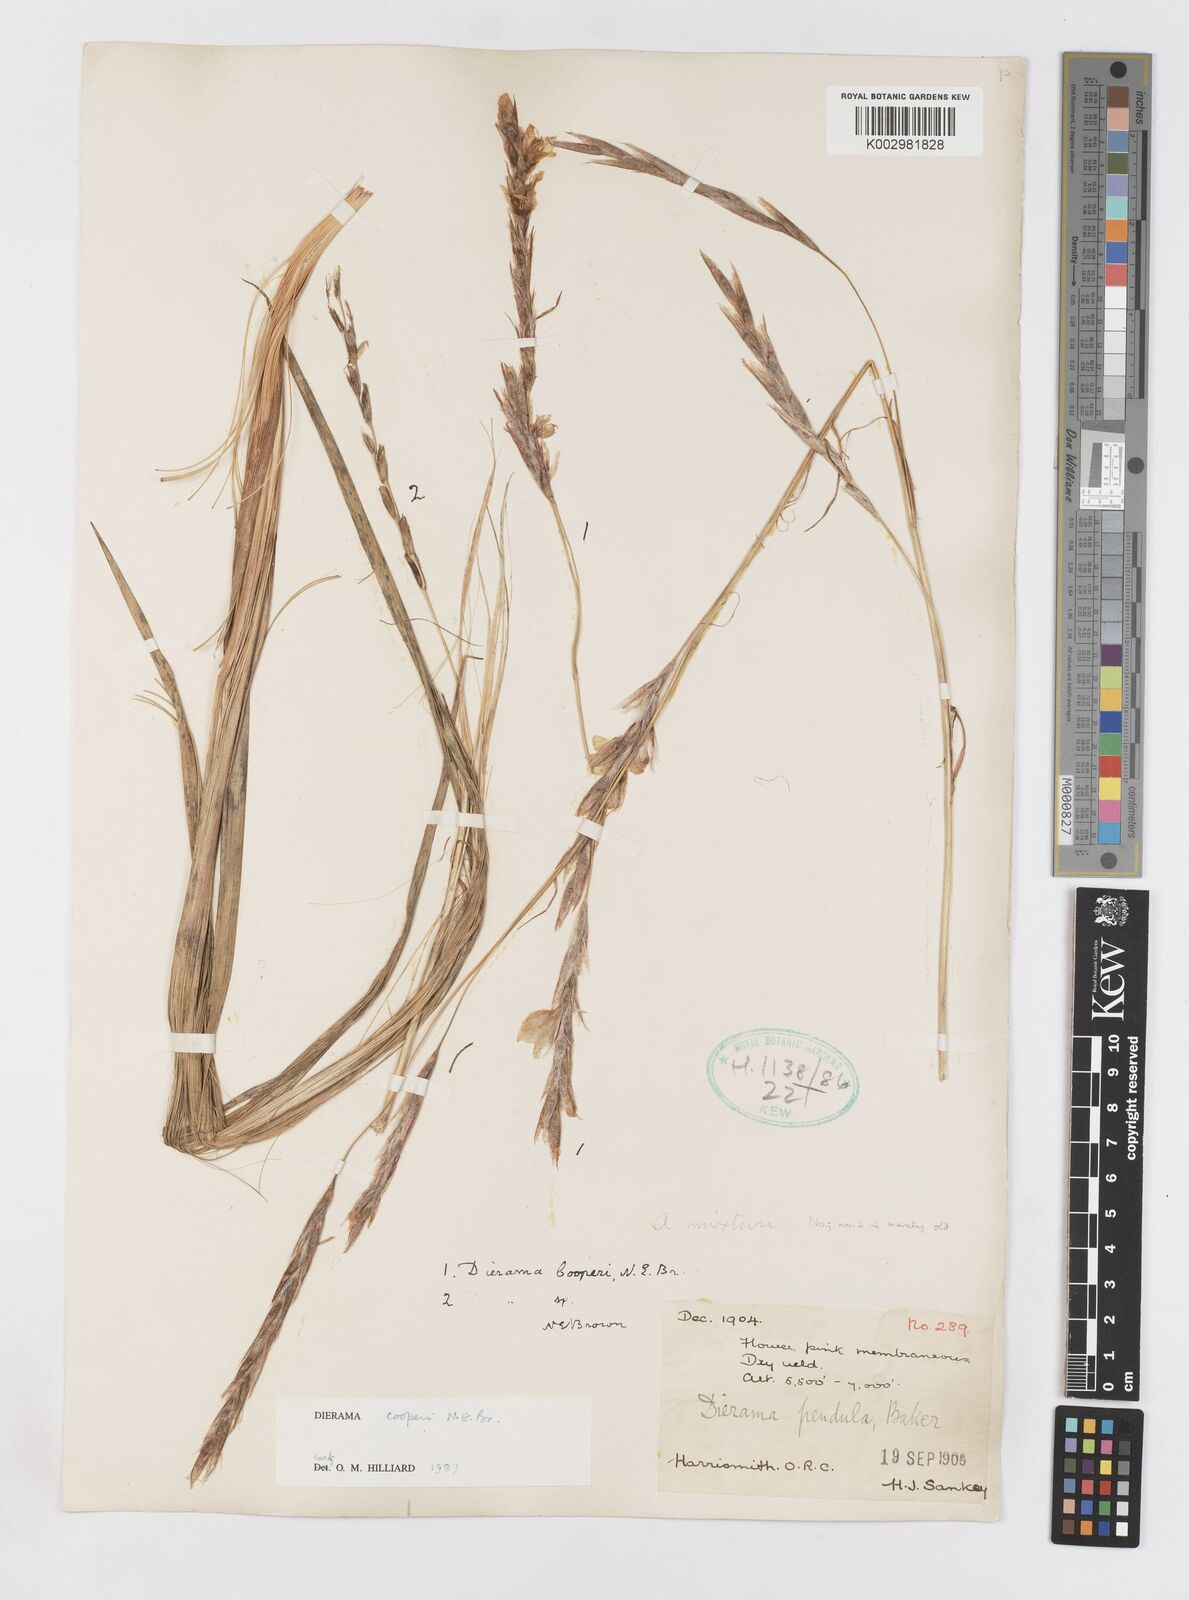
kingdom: Plantae
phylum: Tracheophyta
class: Liliopsida
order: Asparagales
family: Iridaceae
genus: Dierama
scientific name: Dierama cooperi
